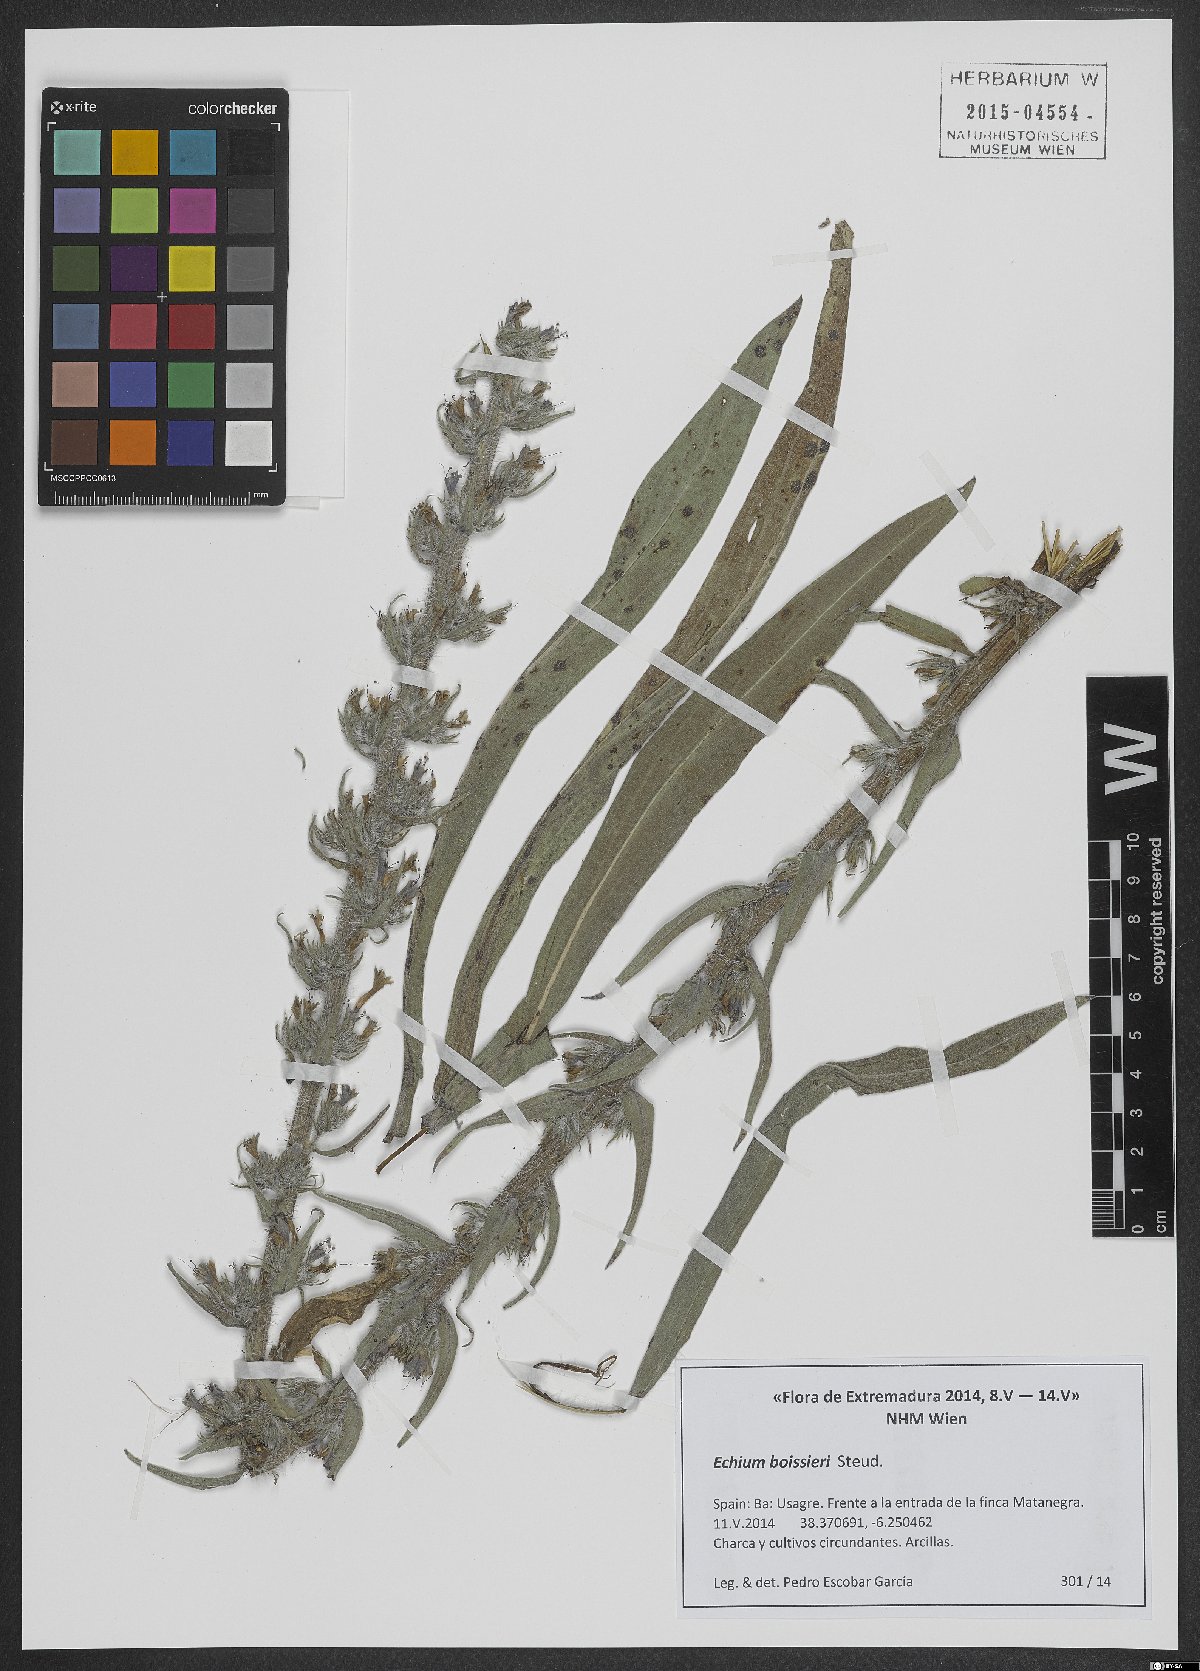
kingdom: Plantae
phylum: Tracheophyta
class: Magnoliopsida
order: Boraginales
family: Boraginaceae
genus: Echium
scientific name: Echium boissieri
